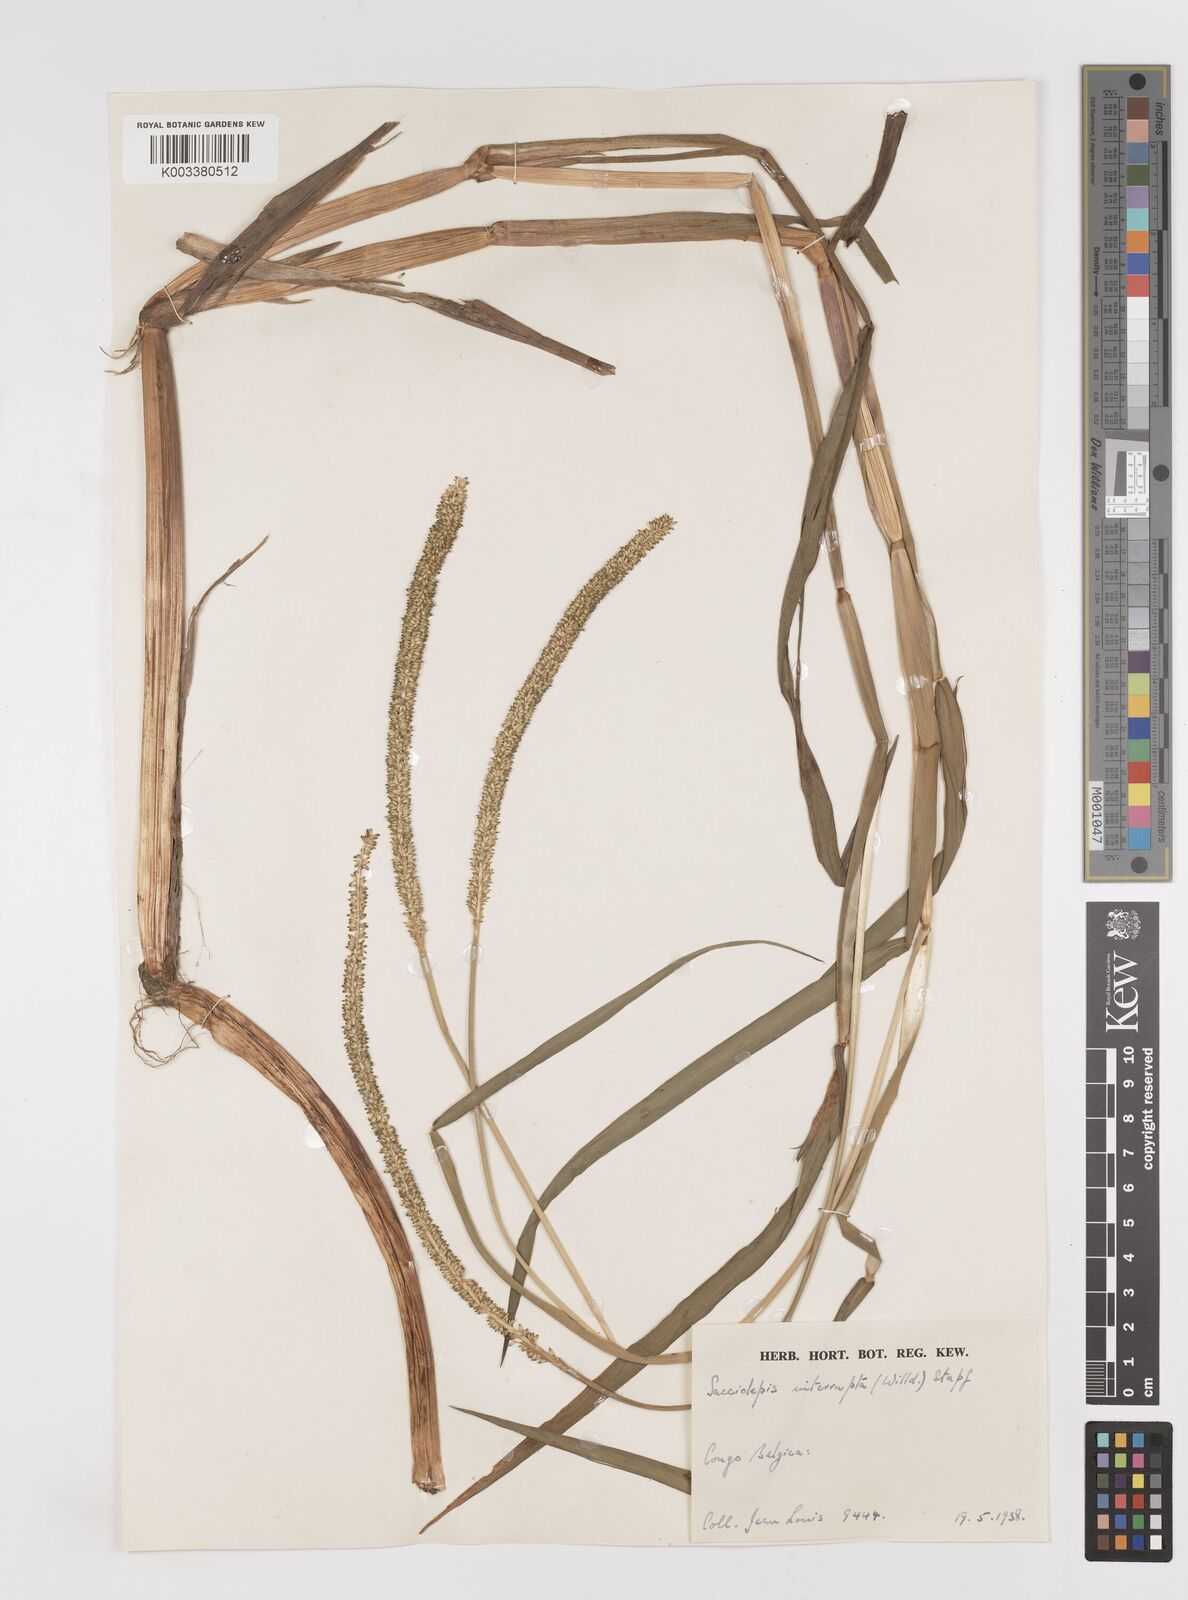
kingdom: Plantae
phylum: Tracheophyta
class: Liliopsida
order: Poales
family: Poaceae
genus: Sacciolepis
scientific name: Sacciolepis africana
